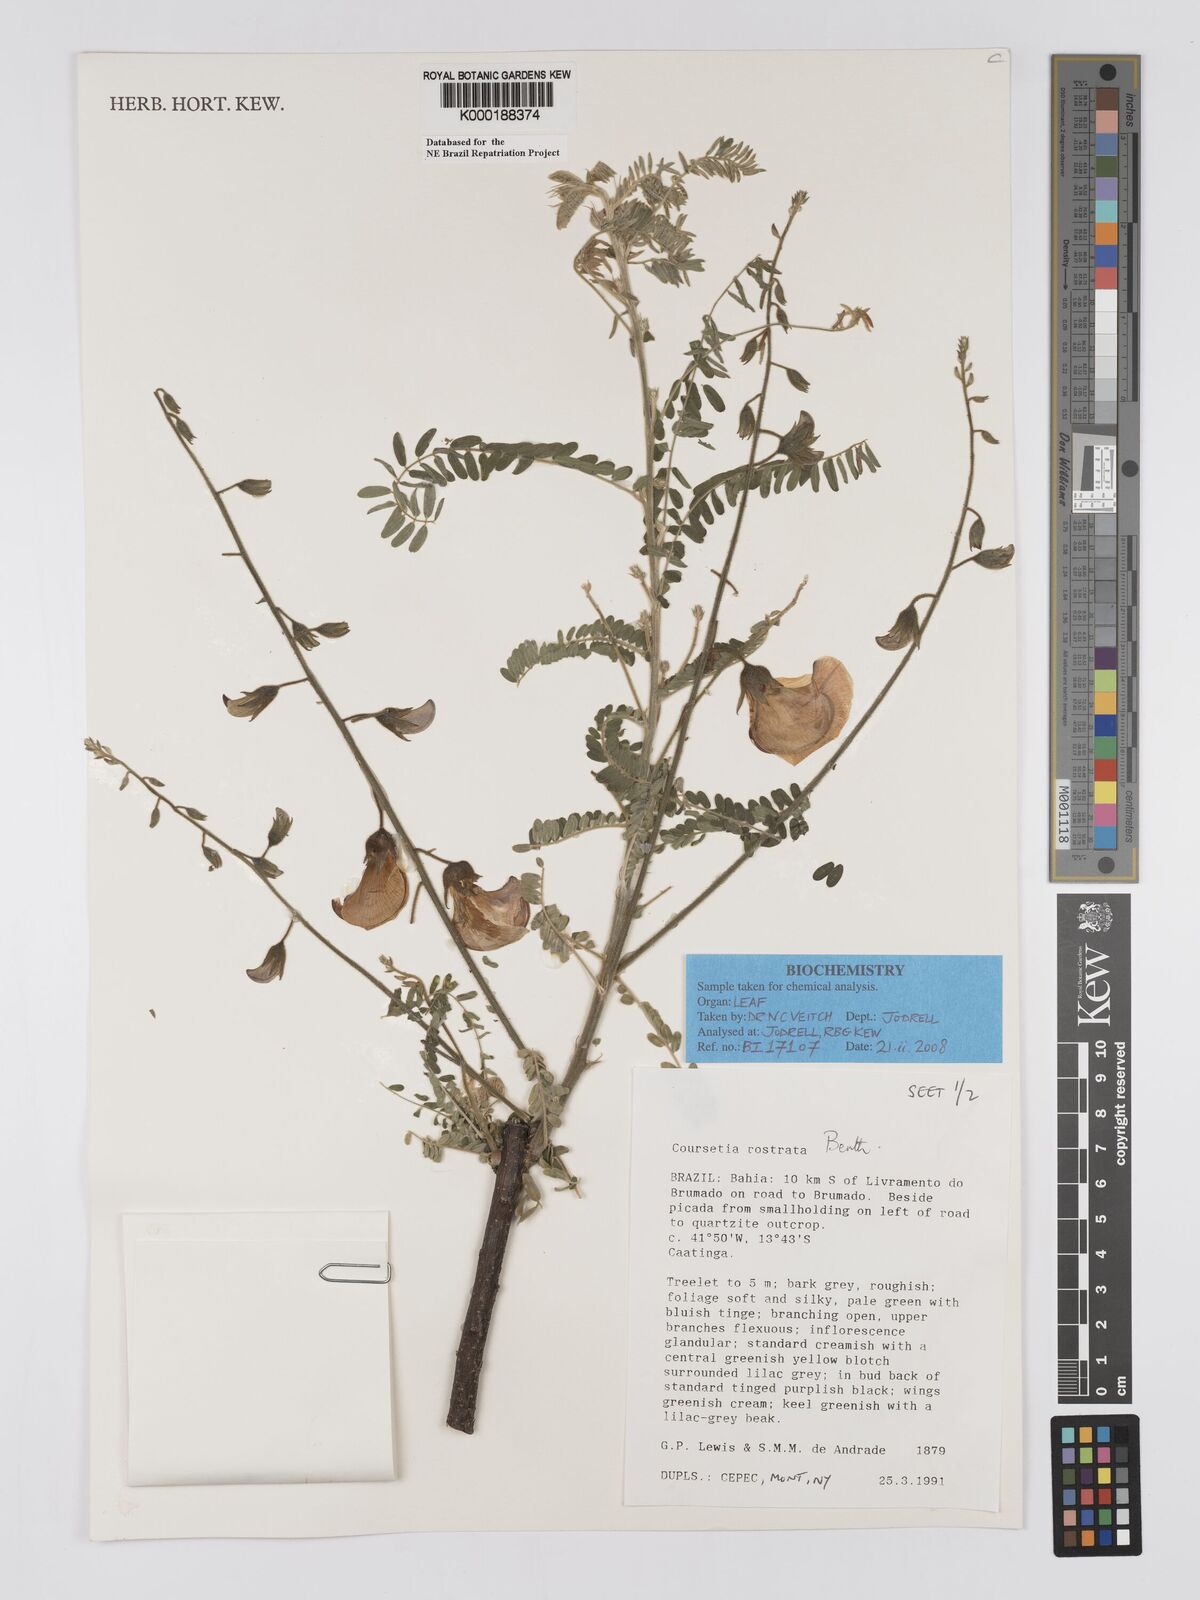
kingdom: Plantae
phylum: Tracheophyta
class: Magnoliopsida
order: Fabales
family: Fabaceae
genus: Coursetia
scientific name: Coursetia rostrata
